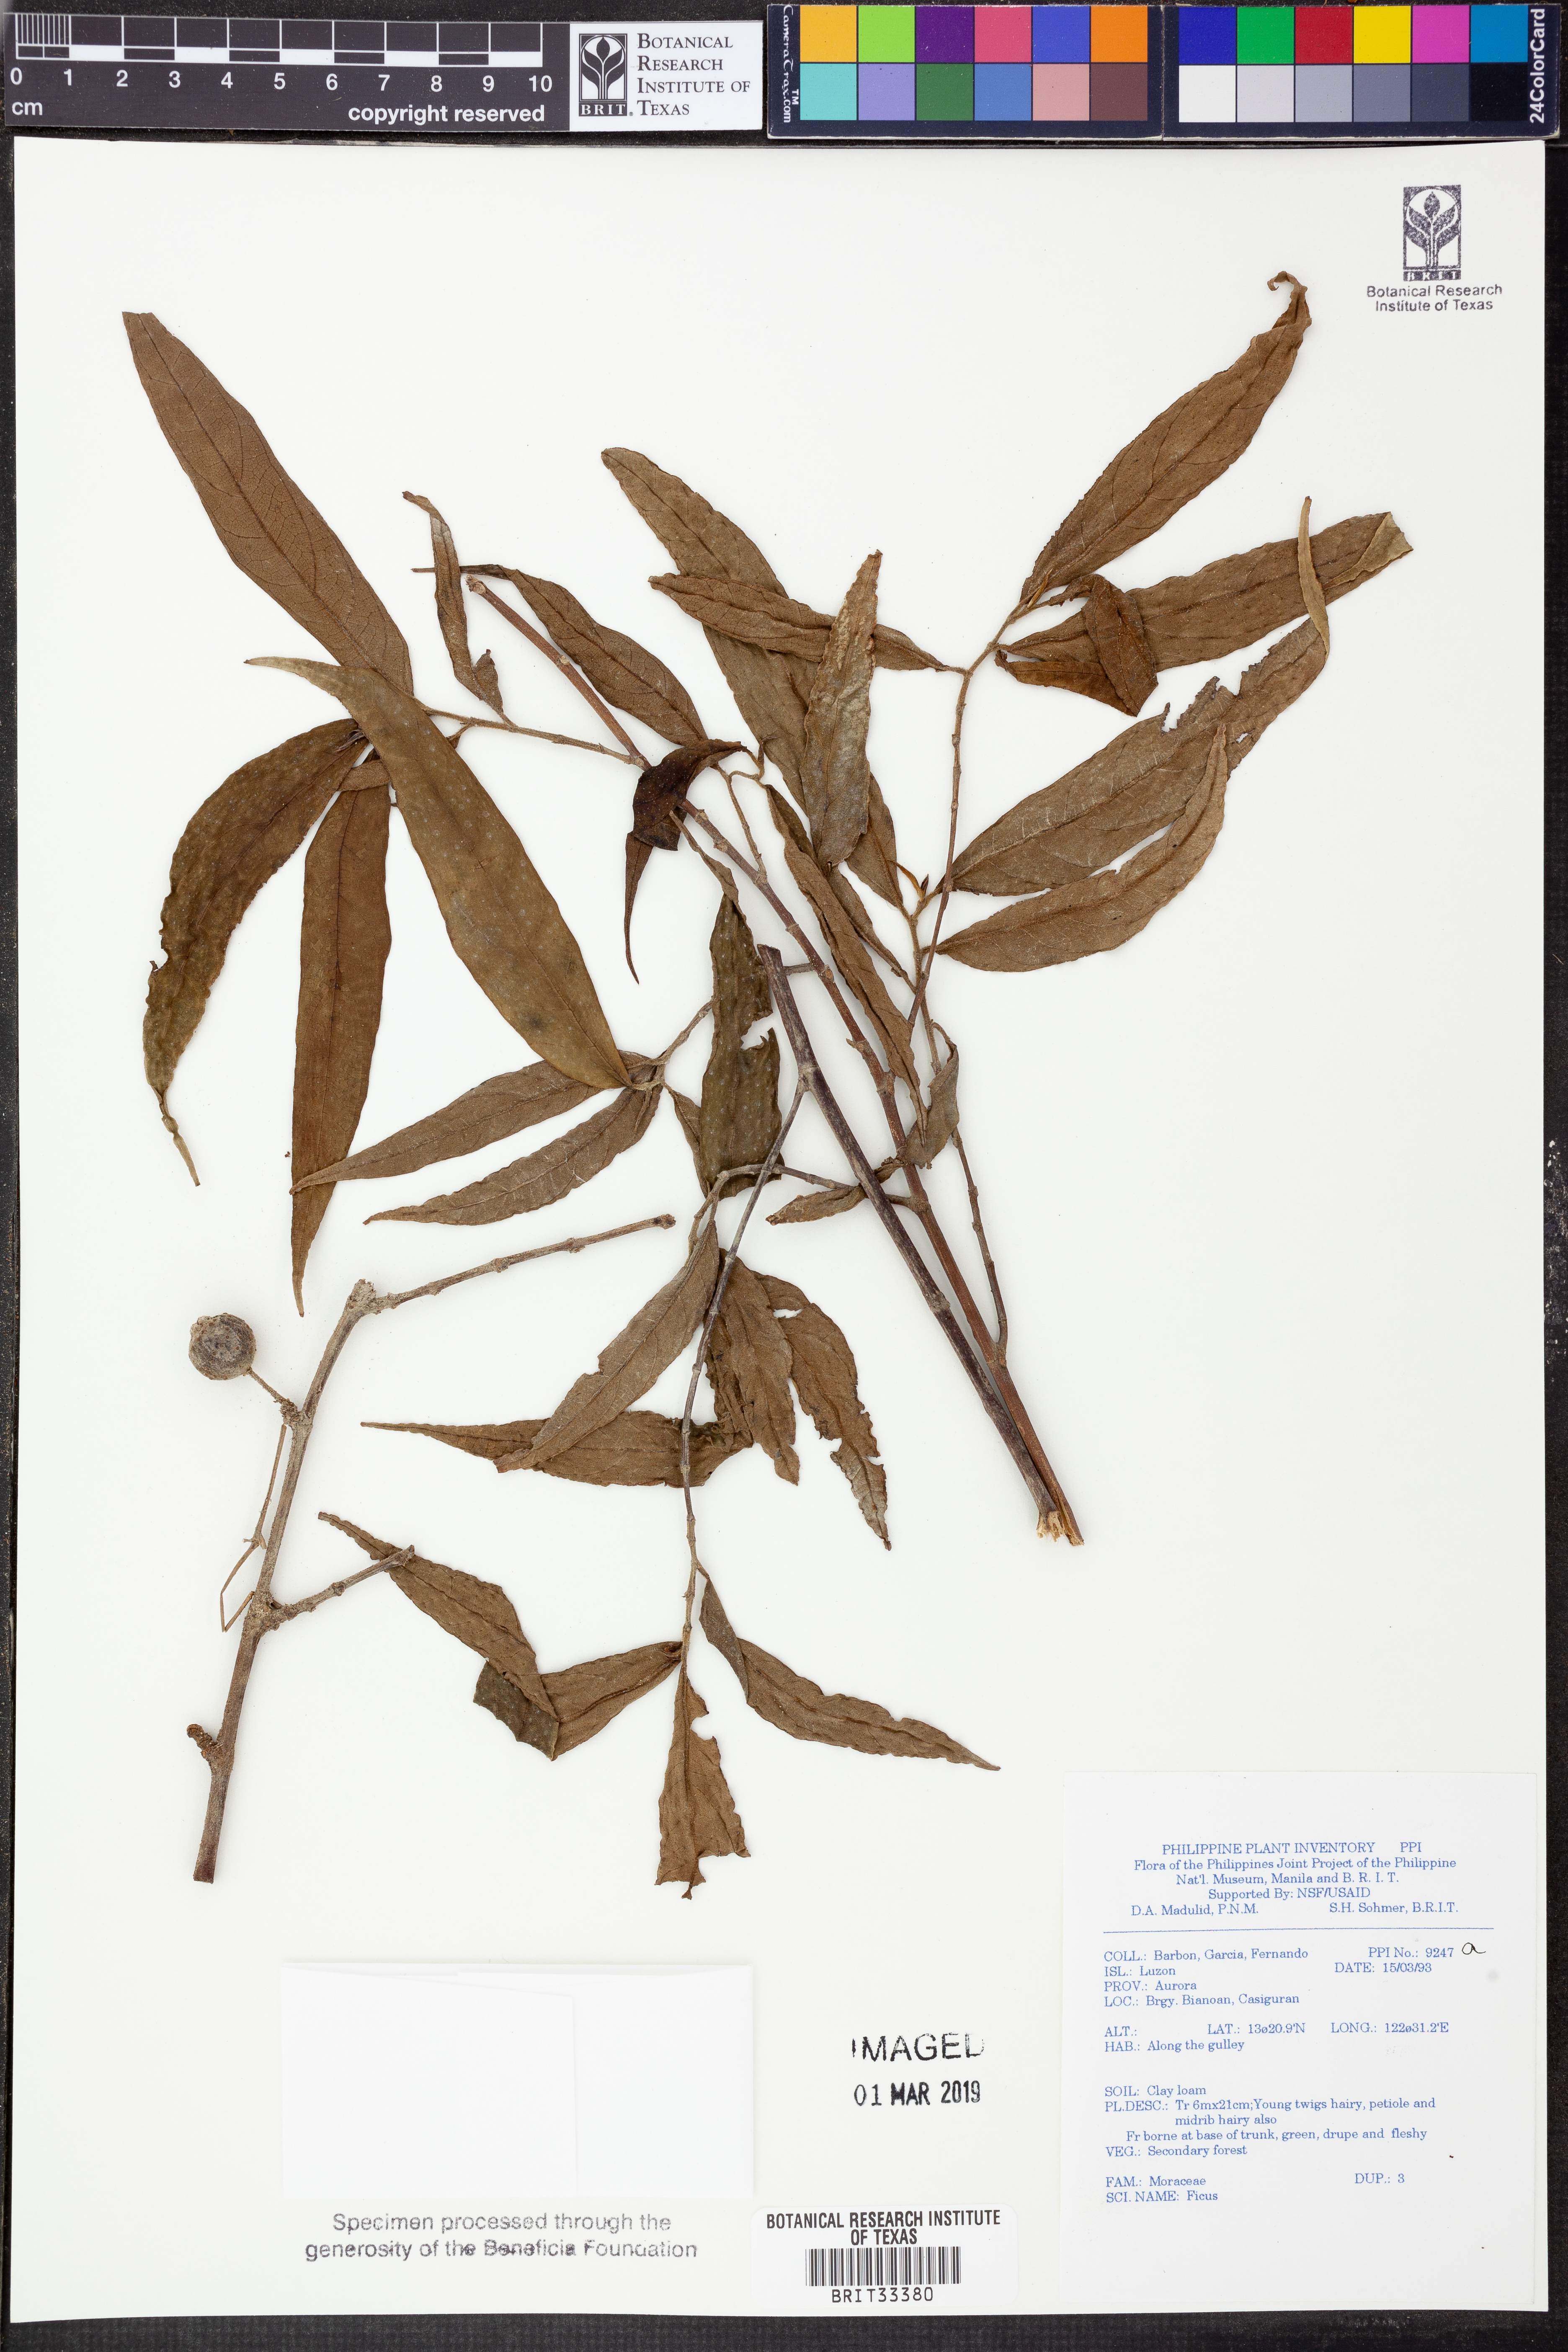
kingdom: Plantae
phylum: Tracheophyta
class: Magnoliopsida
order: Rosales
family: Moraceae
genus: Ficus
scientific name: Ficus
